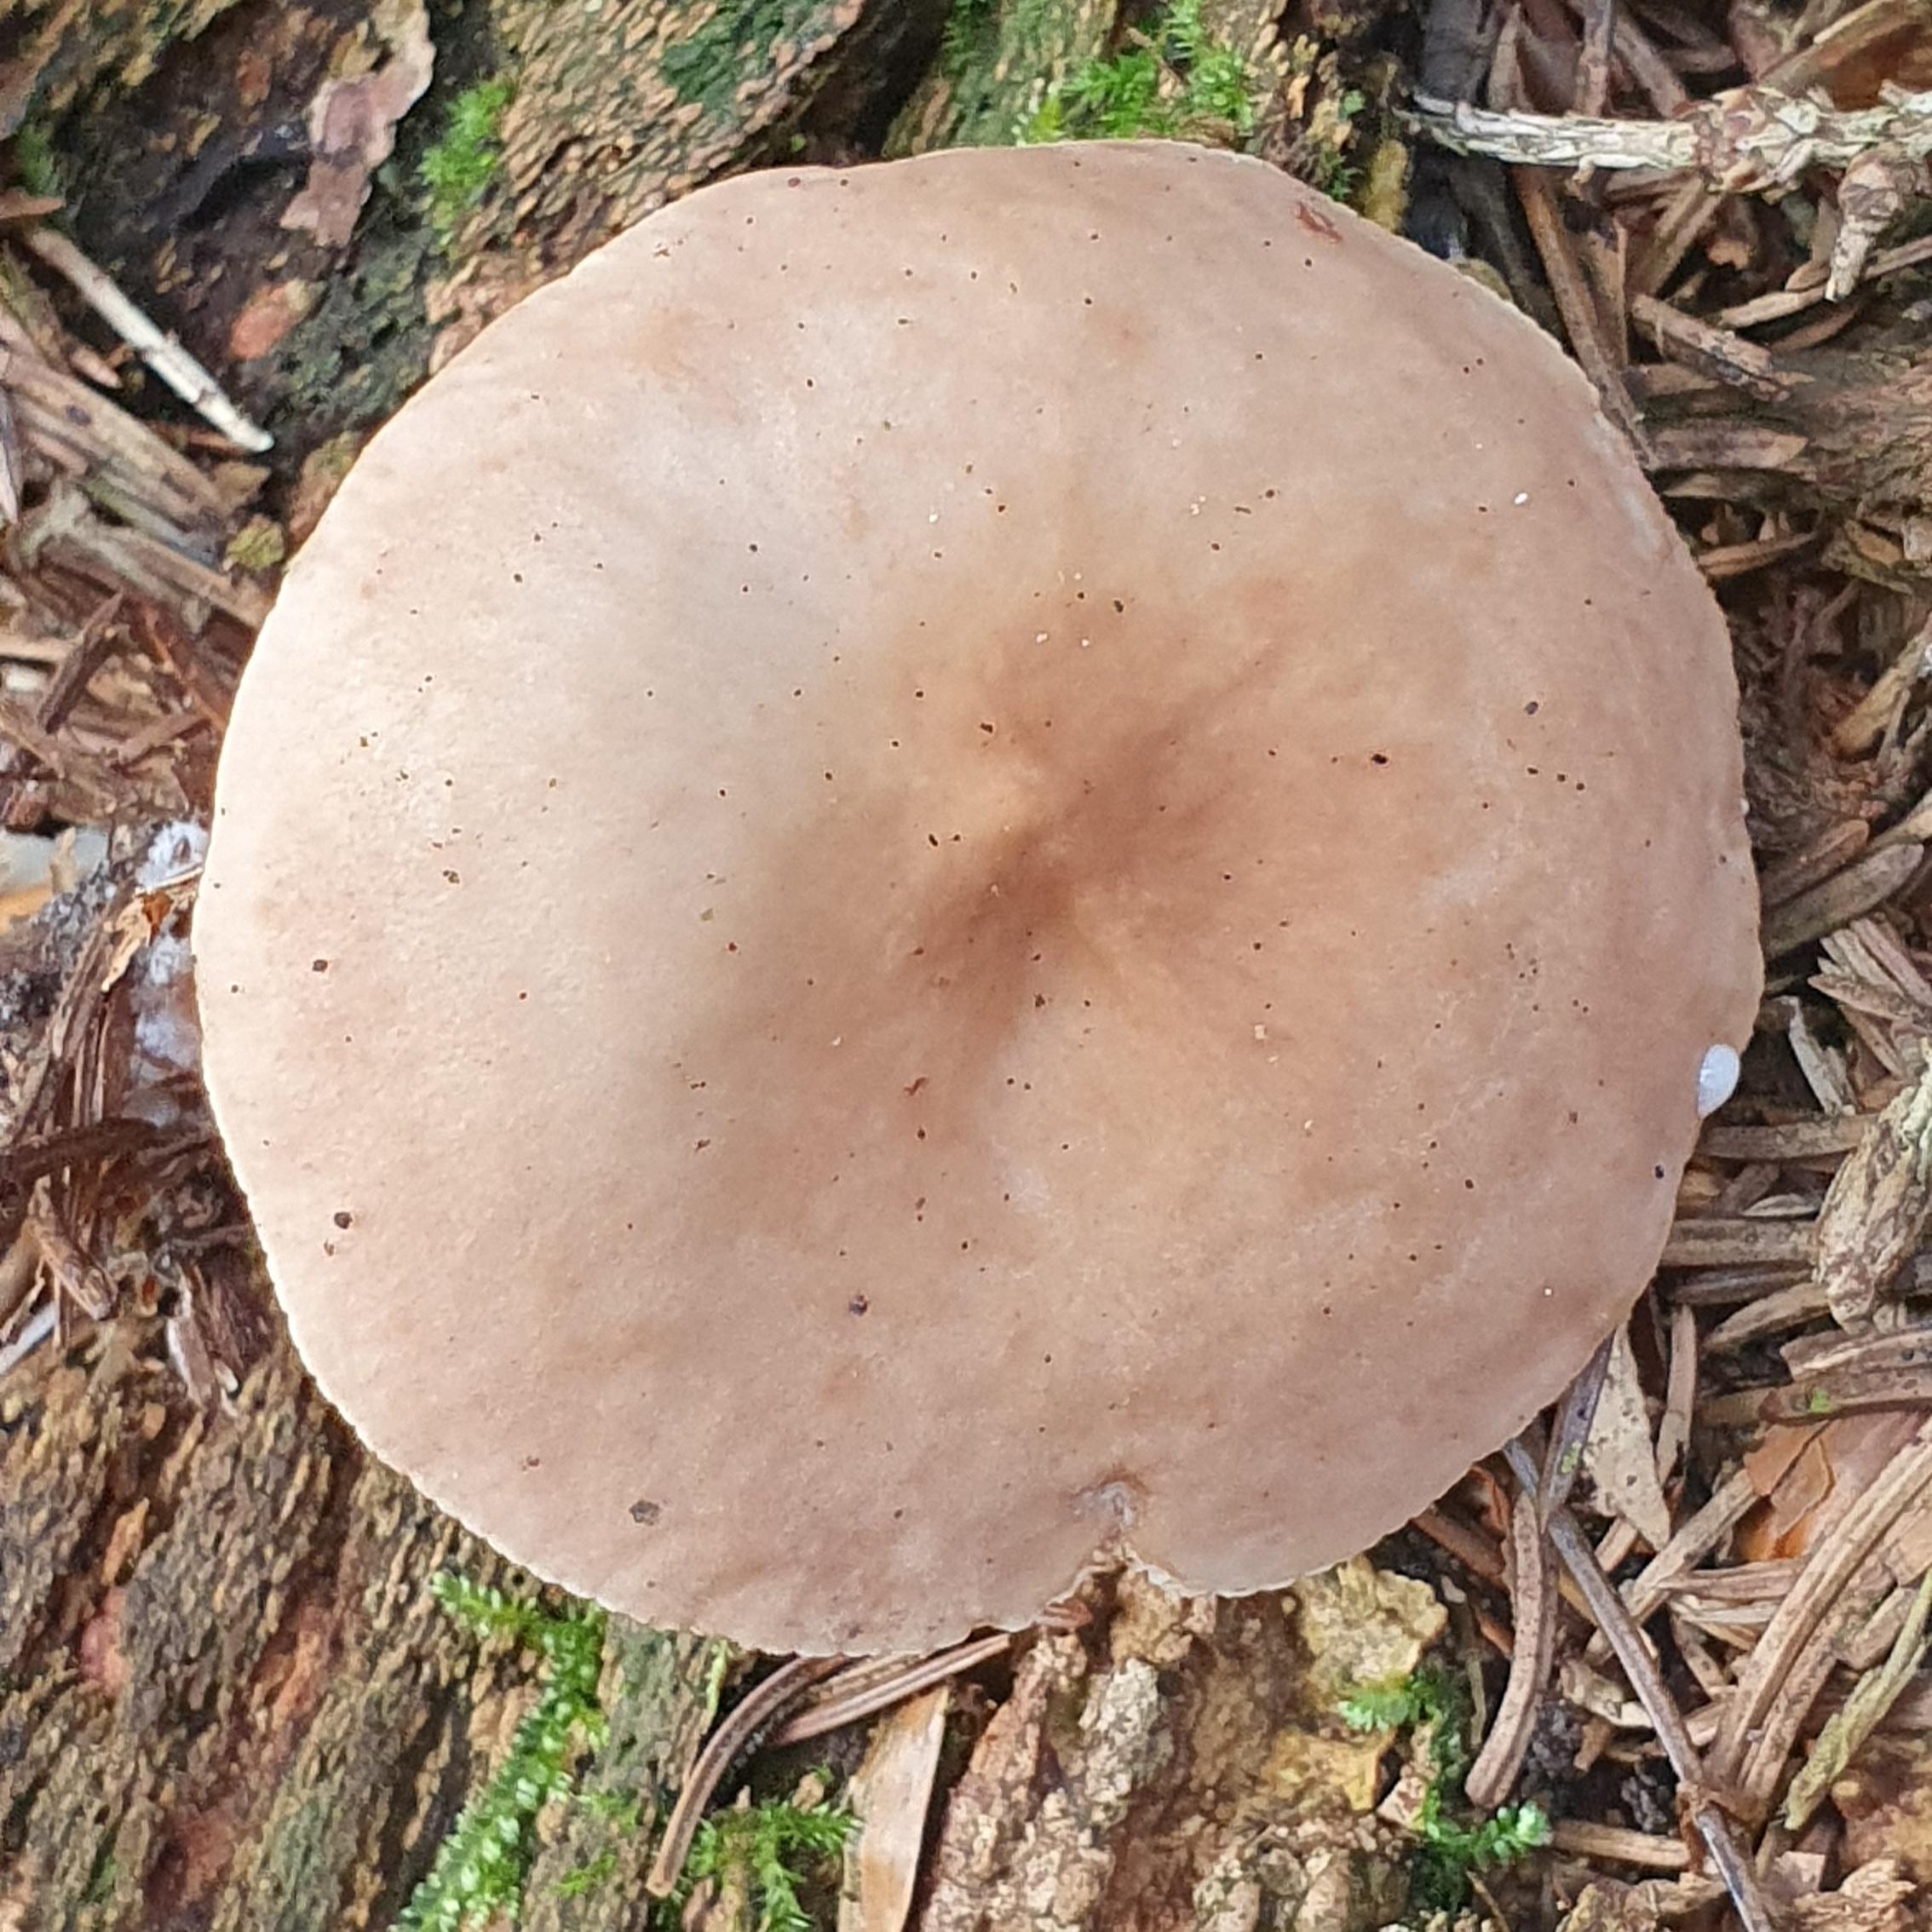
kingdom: Fungi
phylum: Basidiomycota
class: Agaricomycetes
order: Russulales
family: Russulaceae
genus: Lactarius
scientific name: Lactarius
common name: mælkehat
